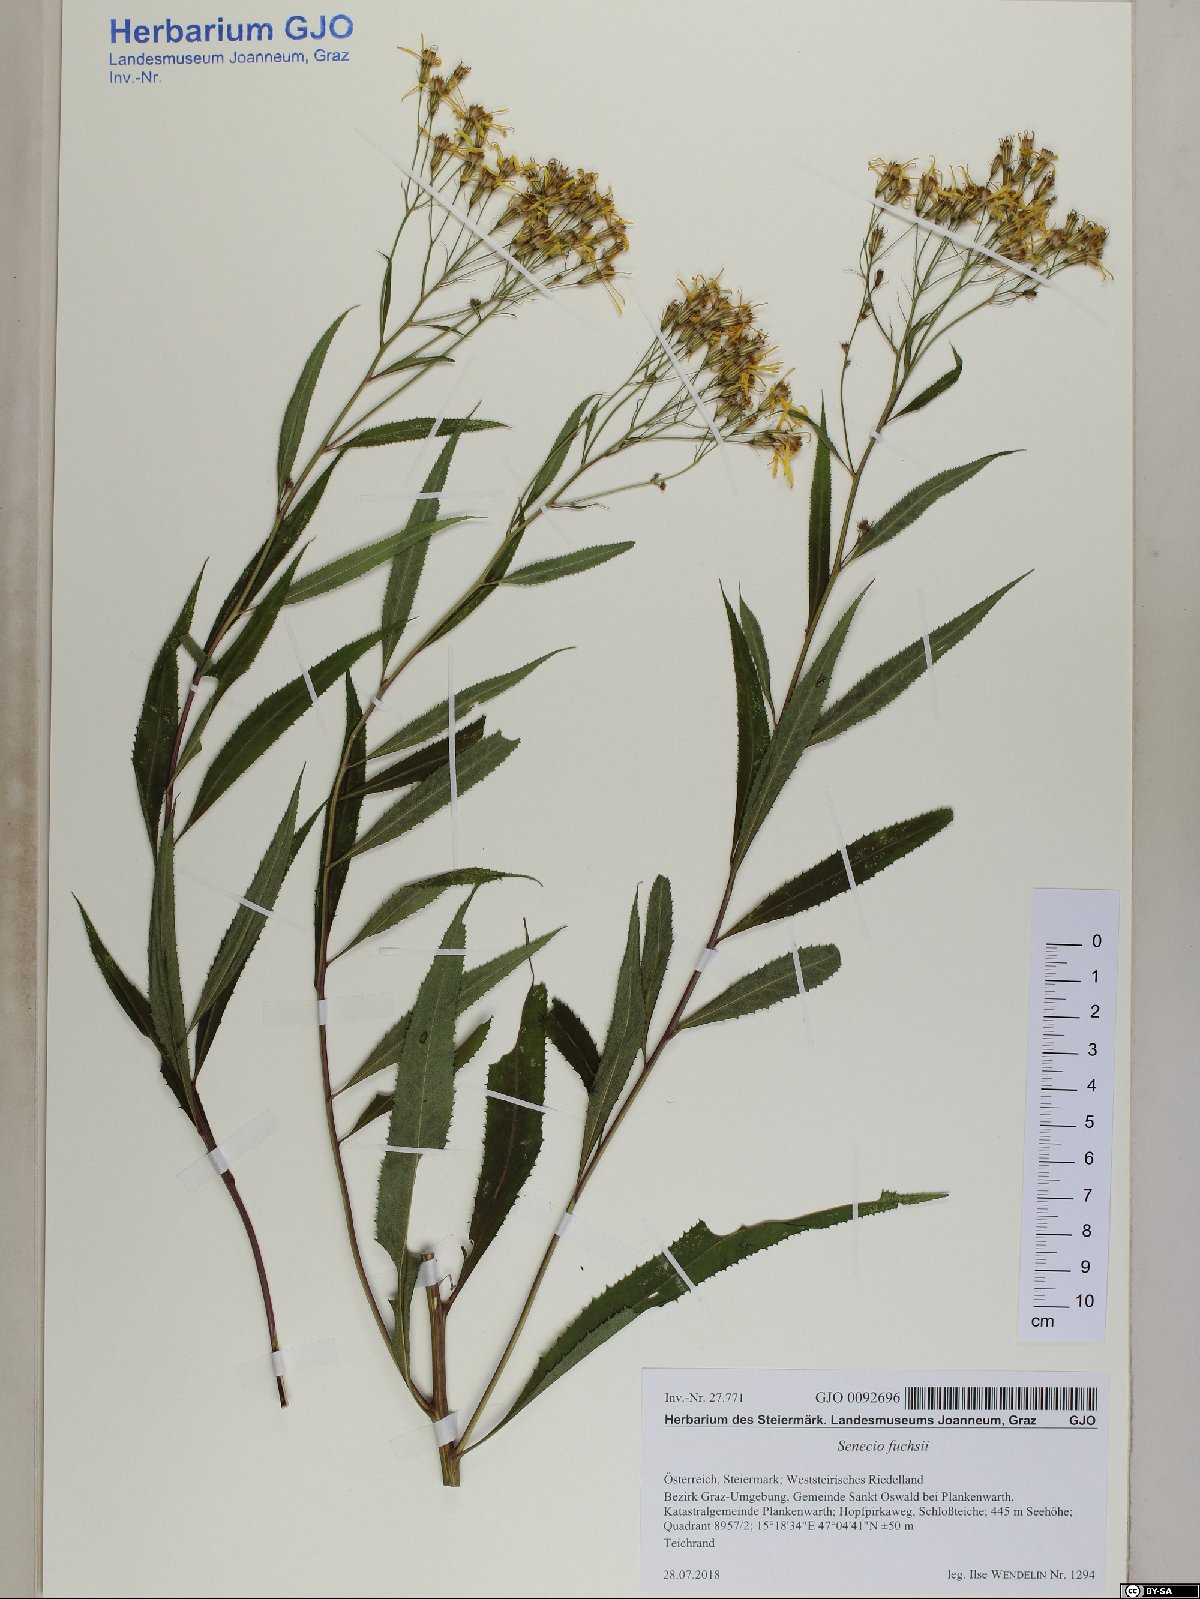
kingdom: Plantae
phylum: Tracheophyta
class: Magnoliopsida
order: Asterales
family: Asteraceae
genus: Senecio
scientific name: Senecio ovatus
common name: Wood ragwort
